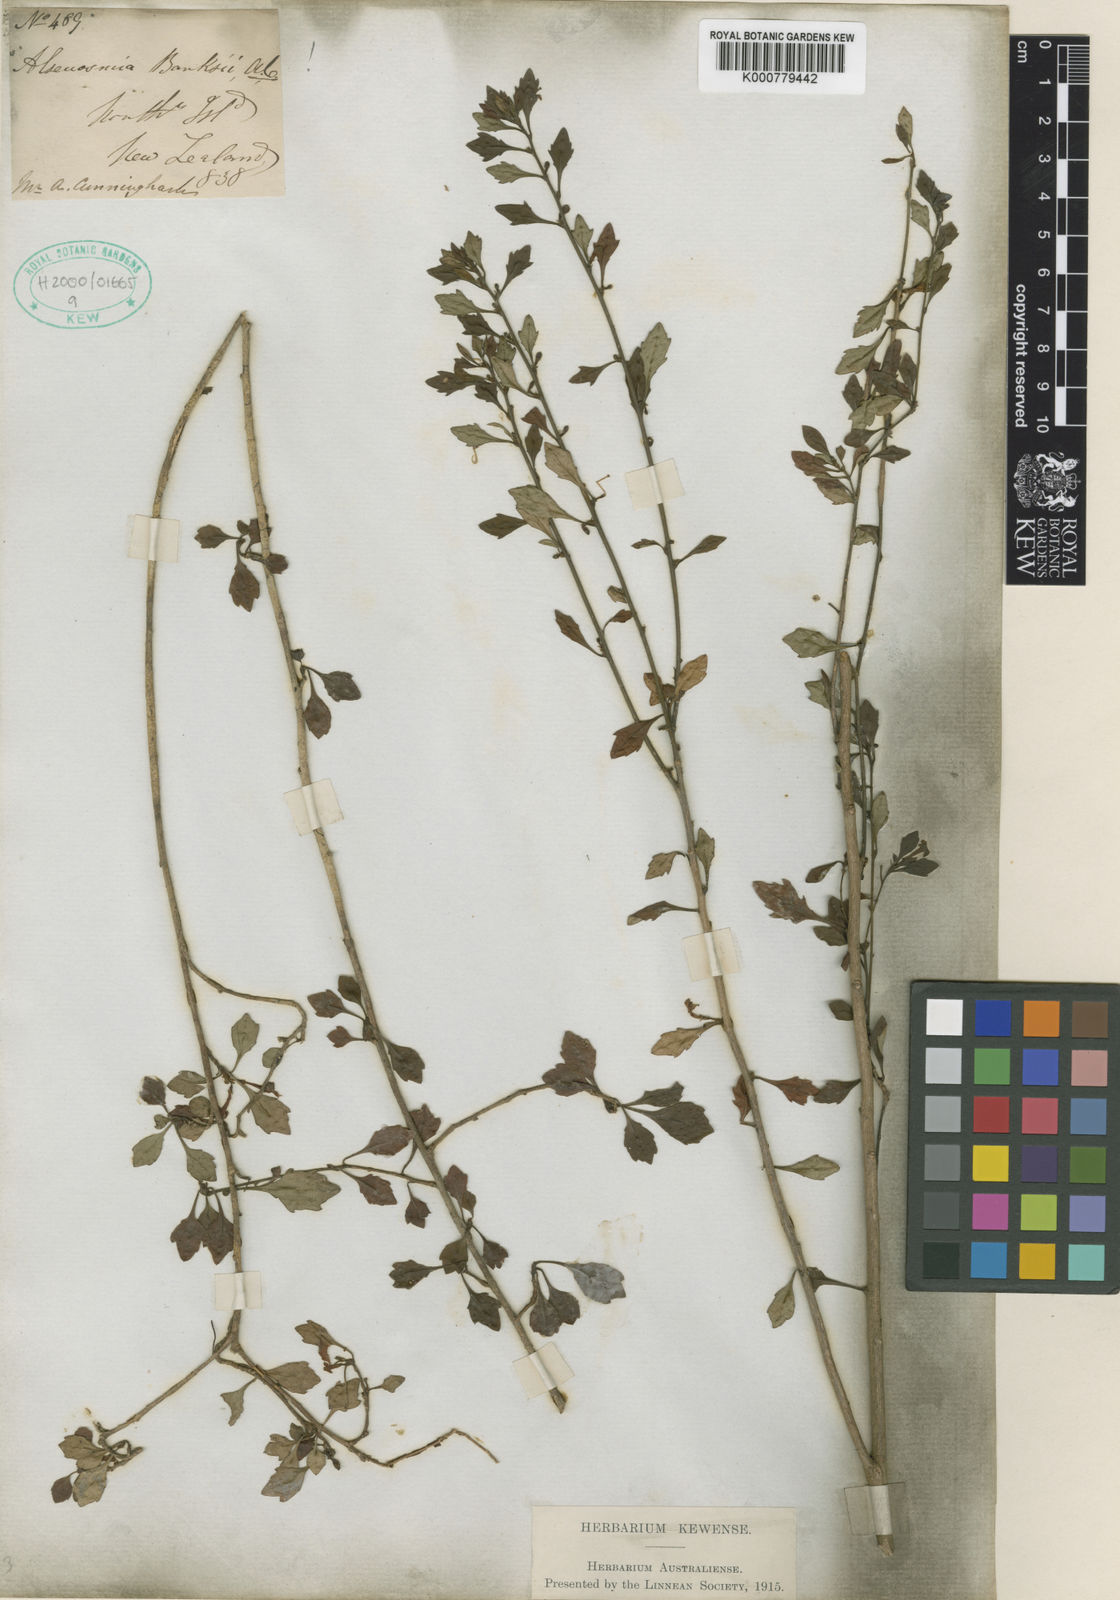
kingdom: Plantae
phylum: Tracheophyta
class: Magnoliopsida
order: Asterales
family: Alseuosmiaceae
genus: Alseuosmia
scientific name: Alseuosmia banksii
